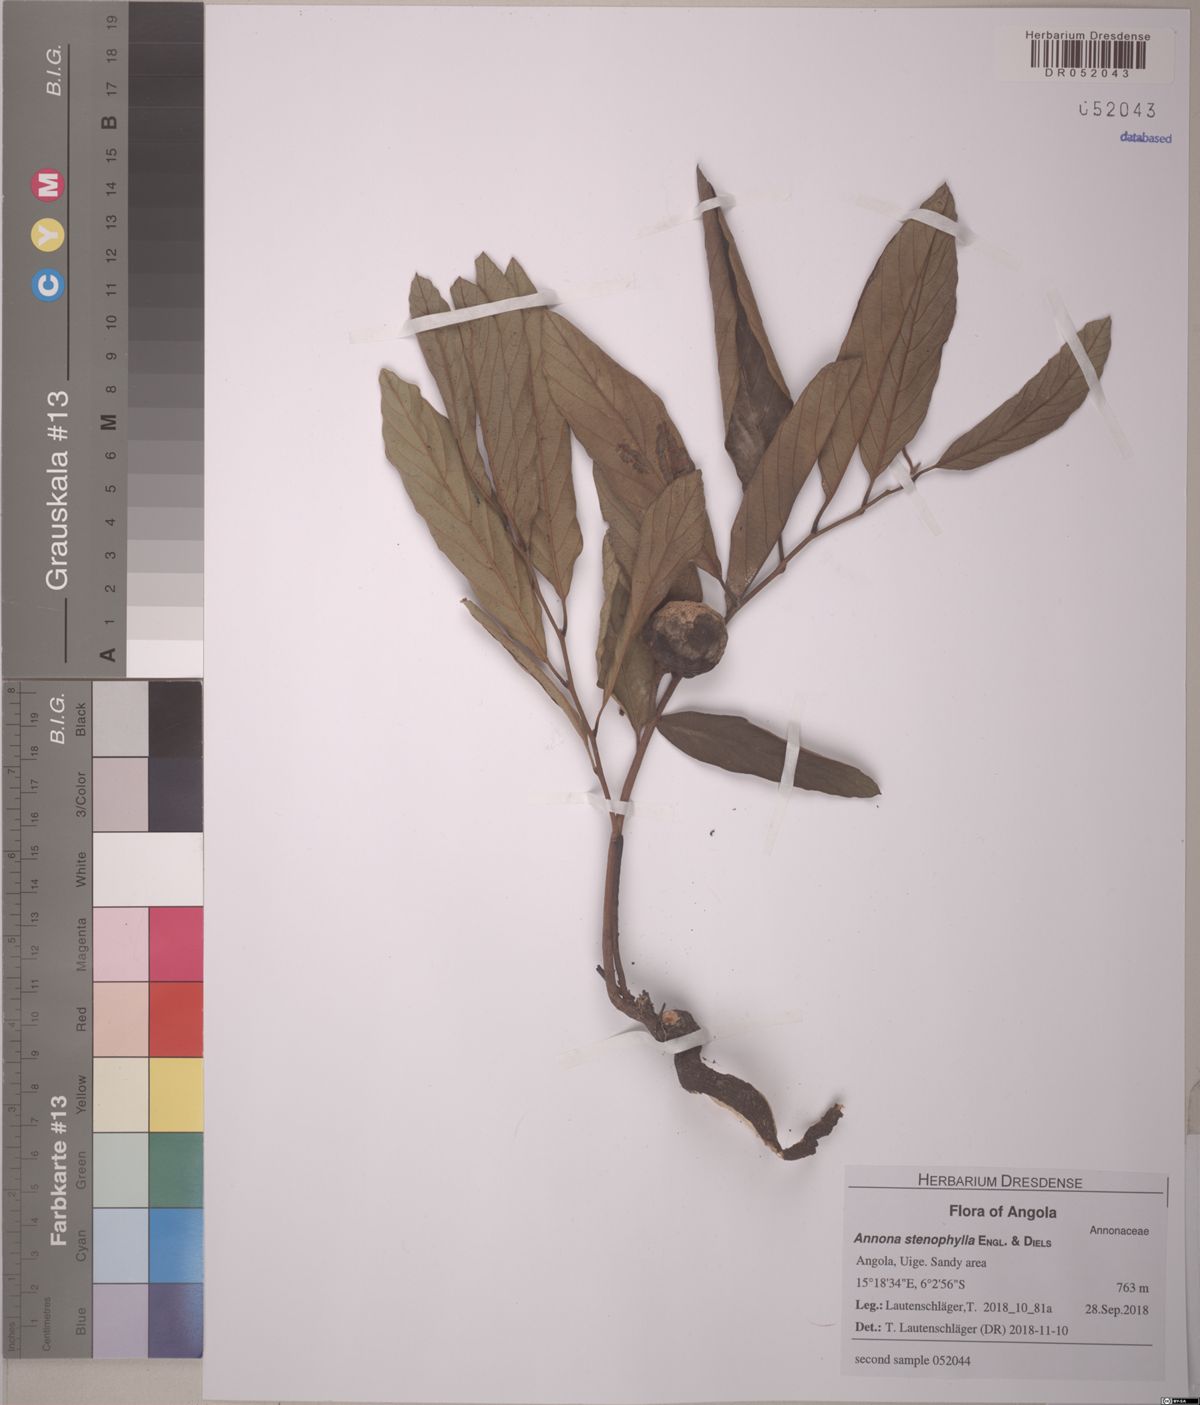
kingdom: Plantae
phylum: Tracheophyta
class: Magnoliopsida
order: Magnoliales
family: Annonaceae
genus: Annona
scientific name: Annona stenophylla
